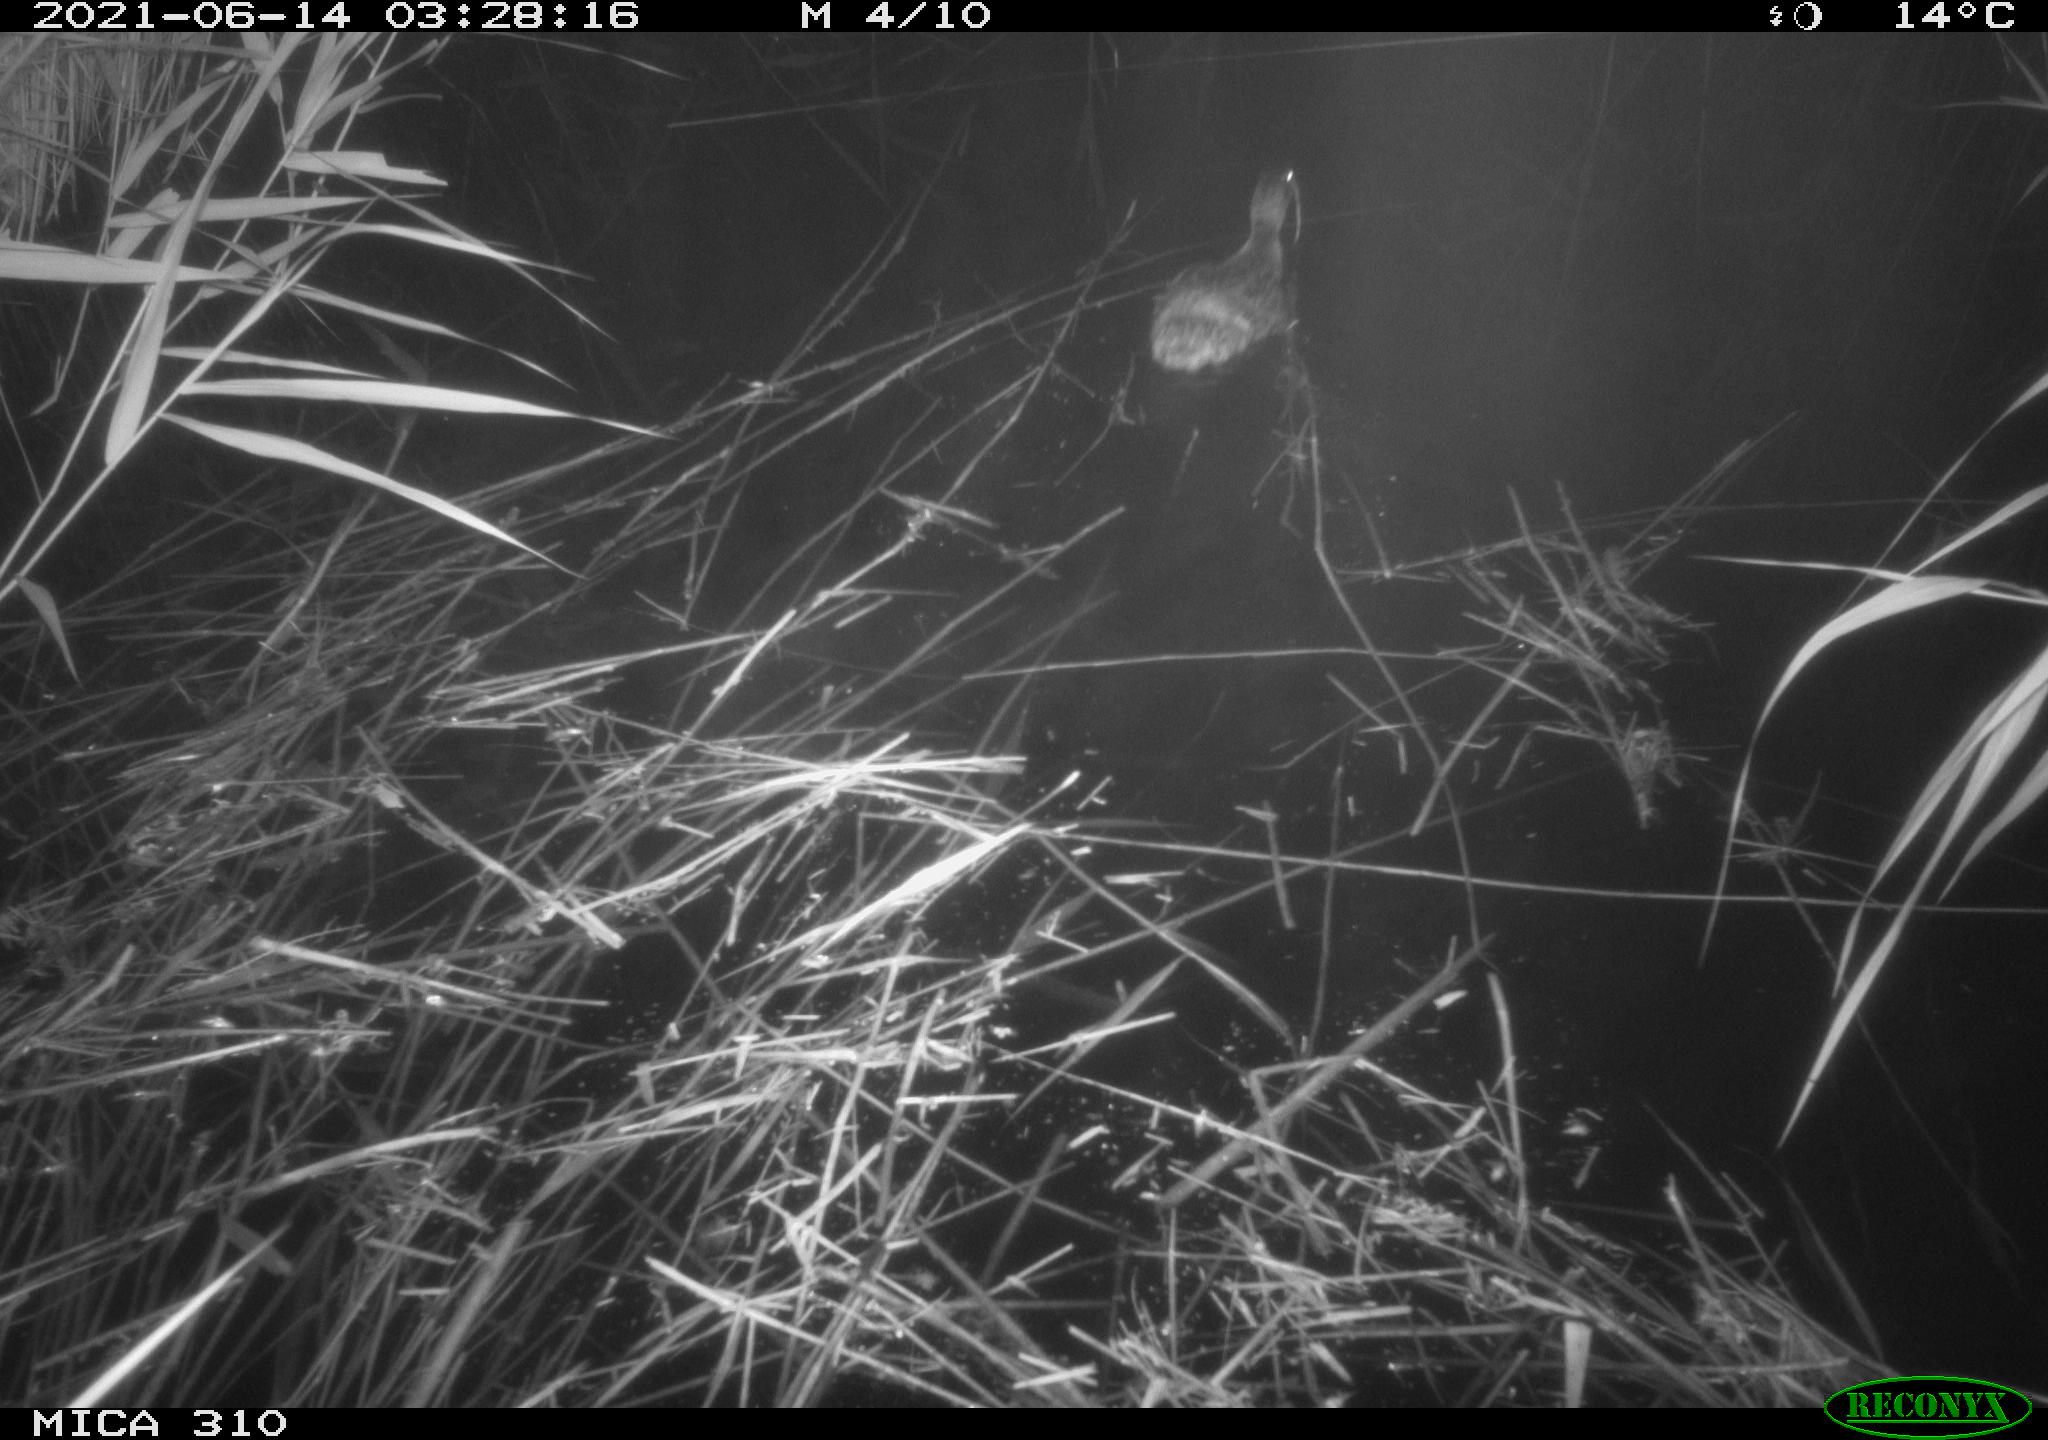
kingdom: Animalia
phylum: Chordata
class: Aves
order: Anseriformes
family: Anatidae
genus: Anas
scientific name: Anas platyrhynchos
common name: Mallard
